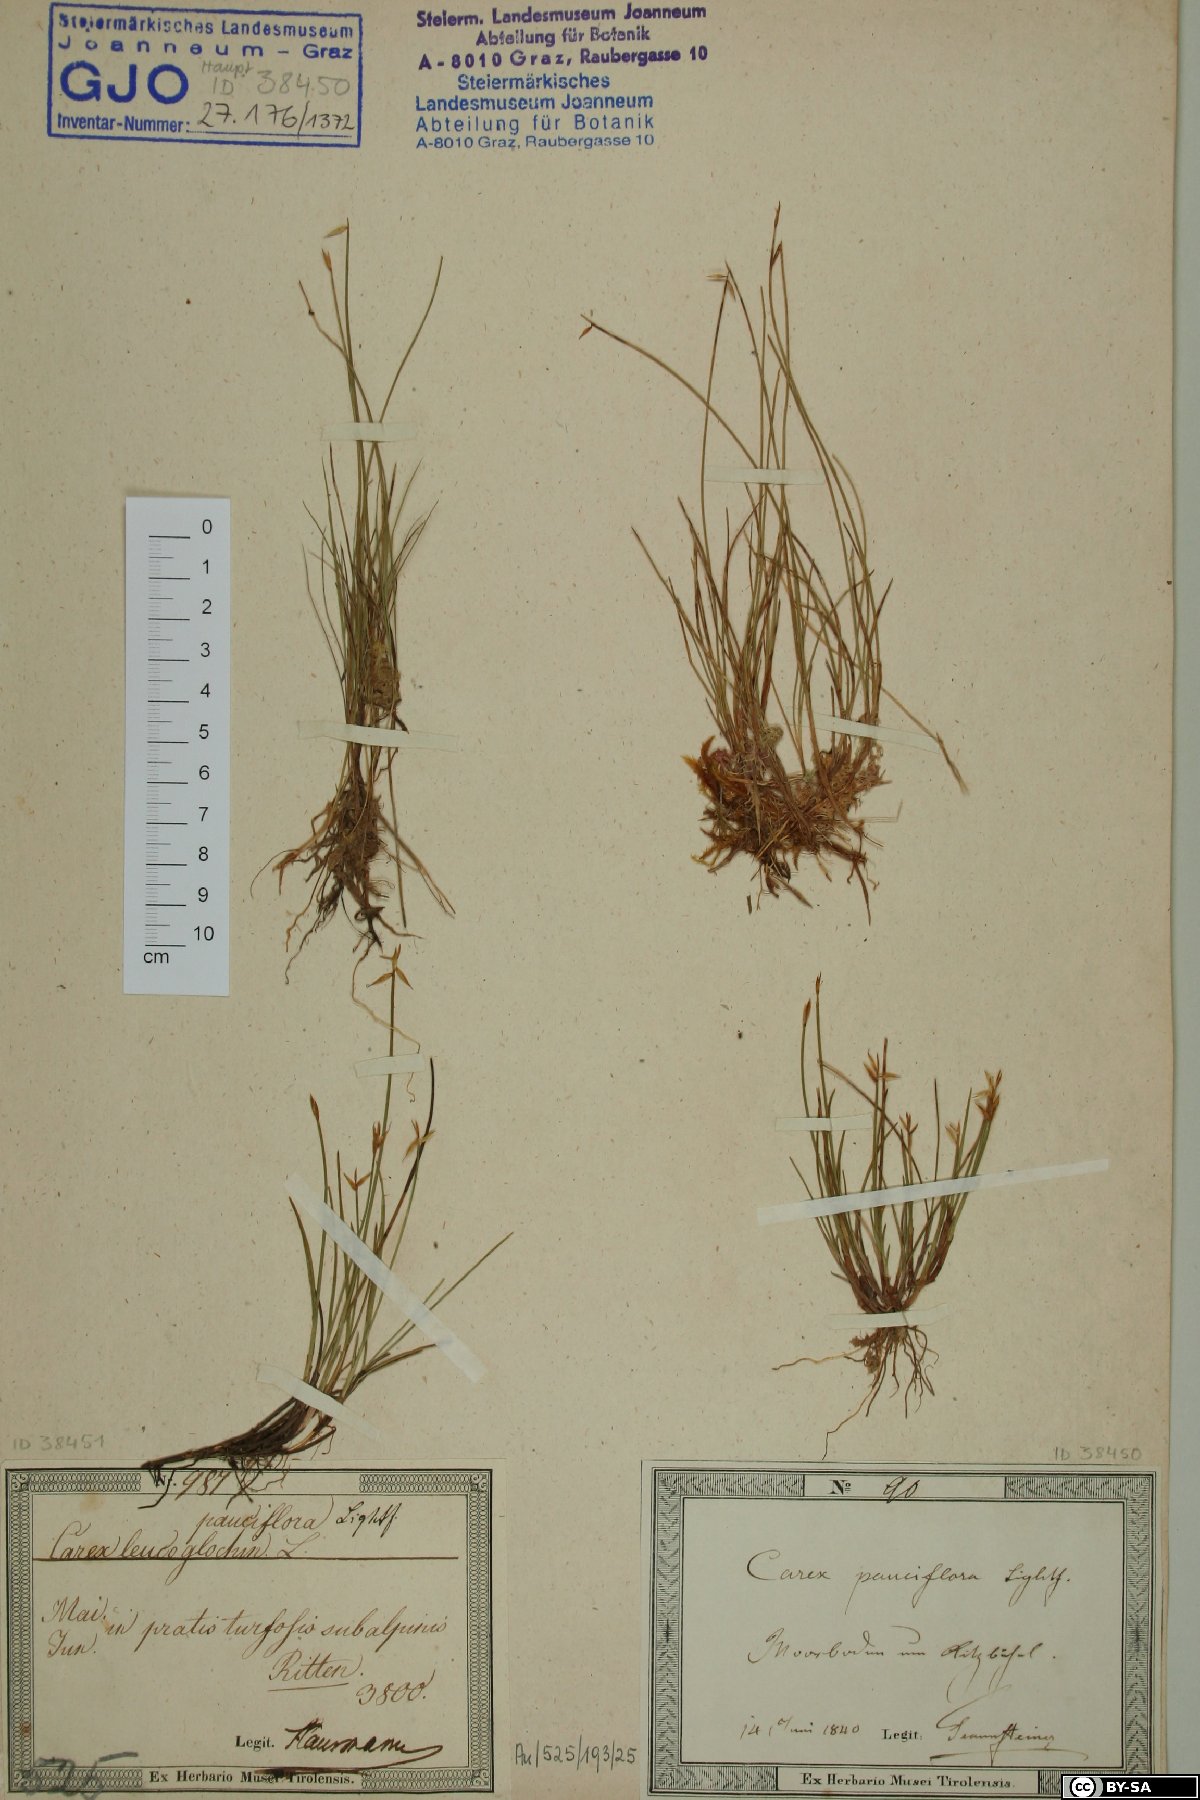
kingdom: Plantae
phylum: Tracheophyta
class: Liliopsida
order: Poales
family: Cyperaceae
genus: Carex
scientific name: Carex pauciflora
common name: Few-flowered sedge
